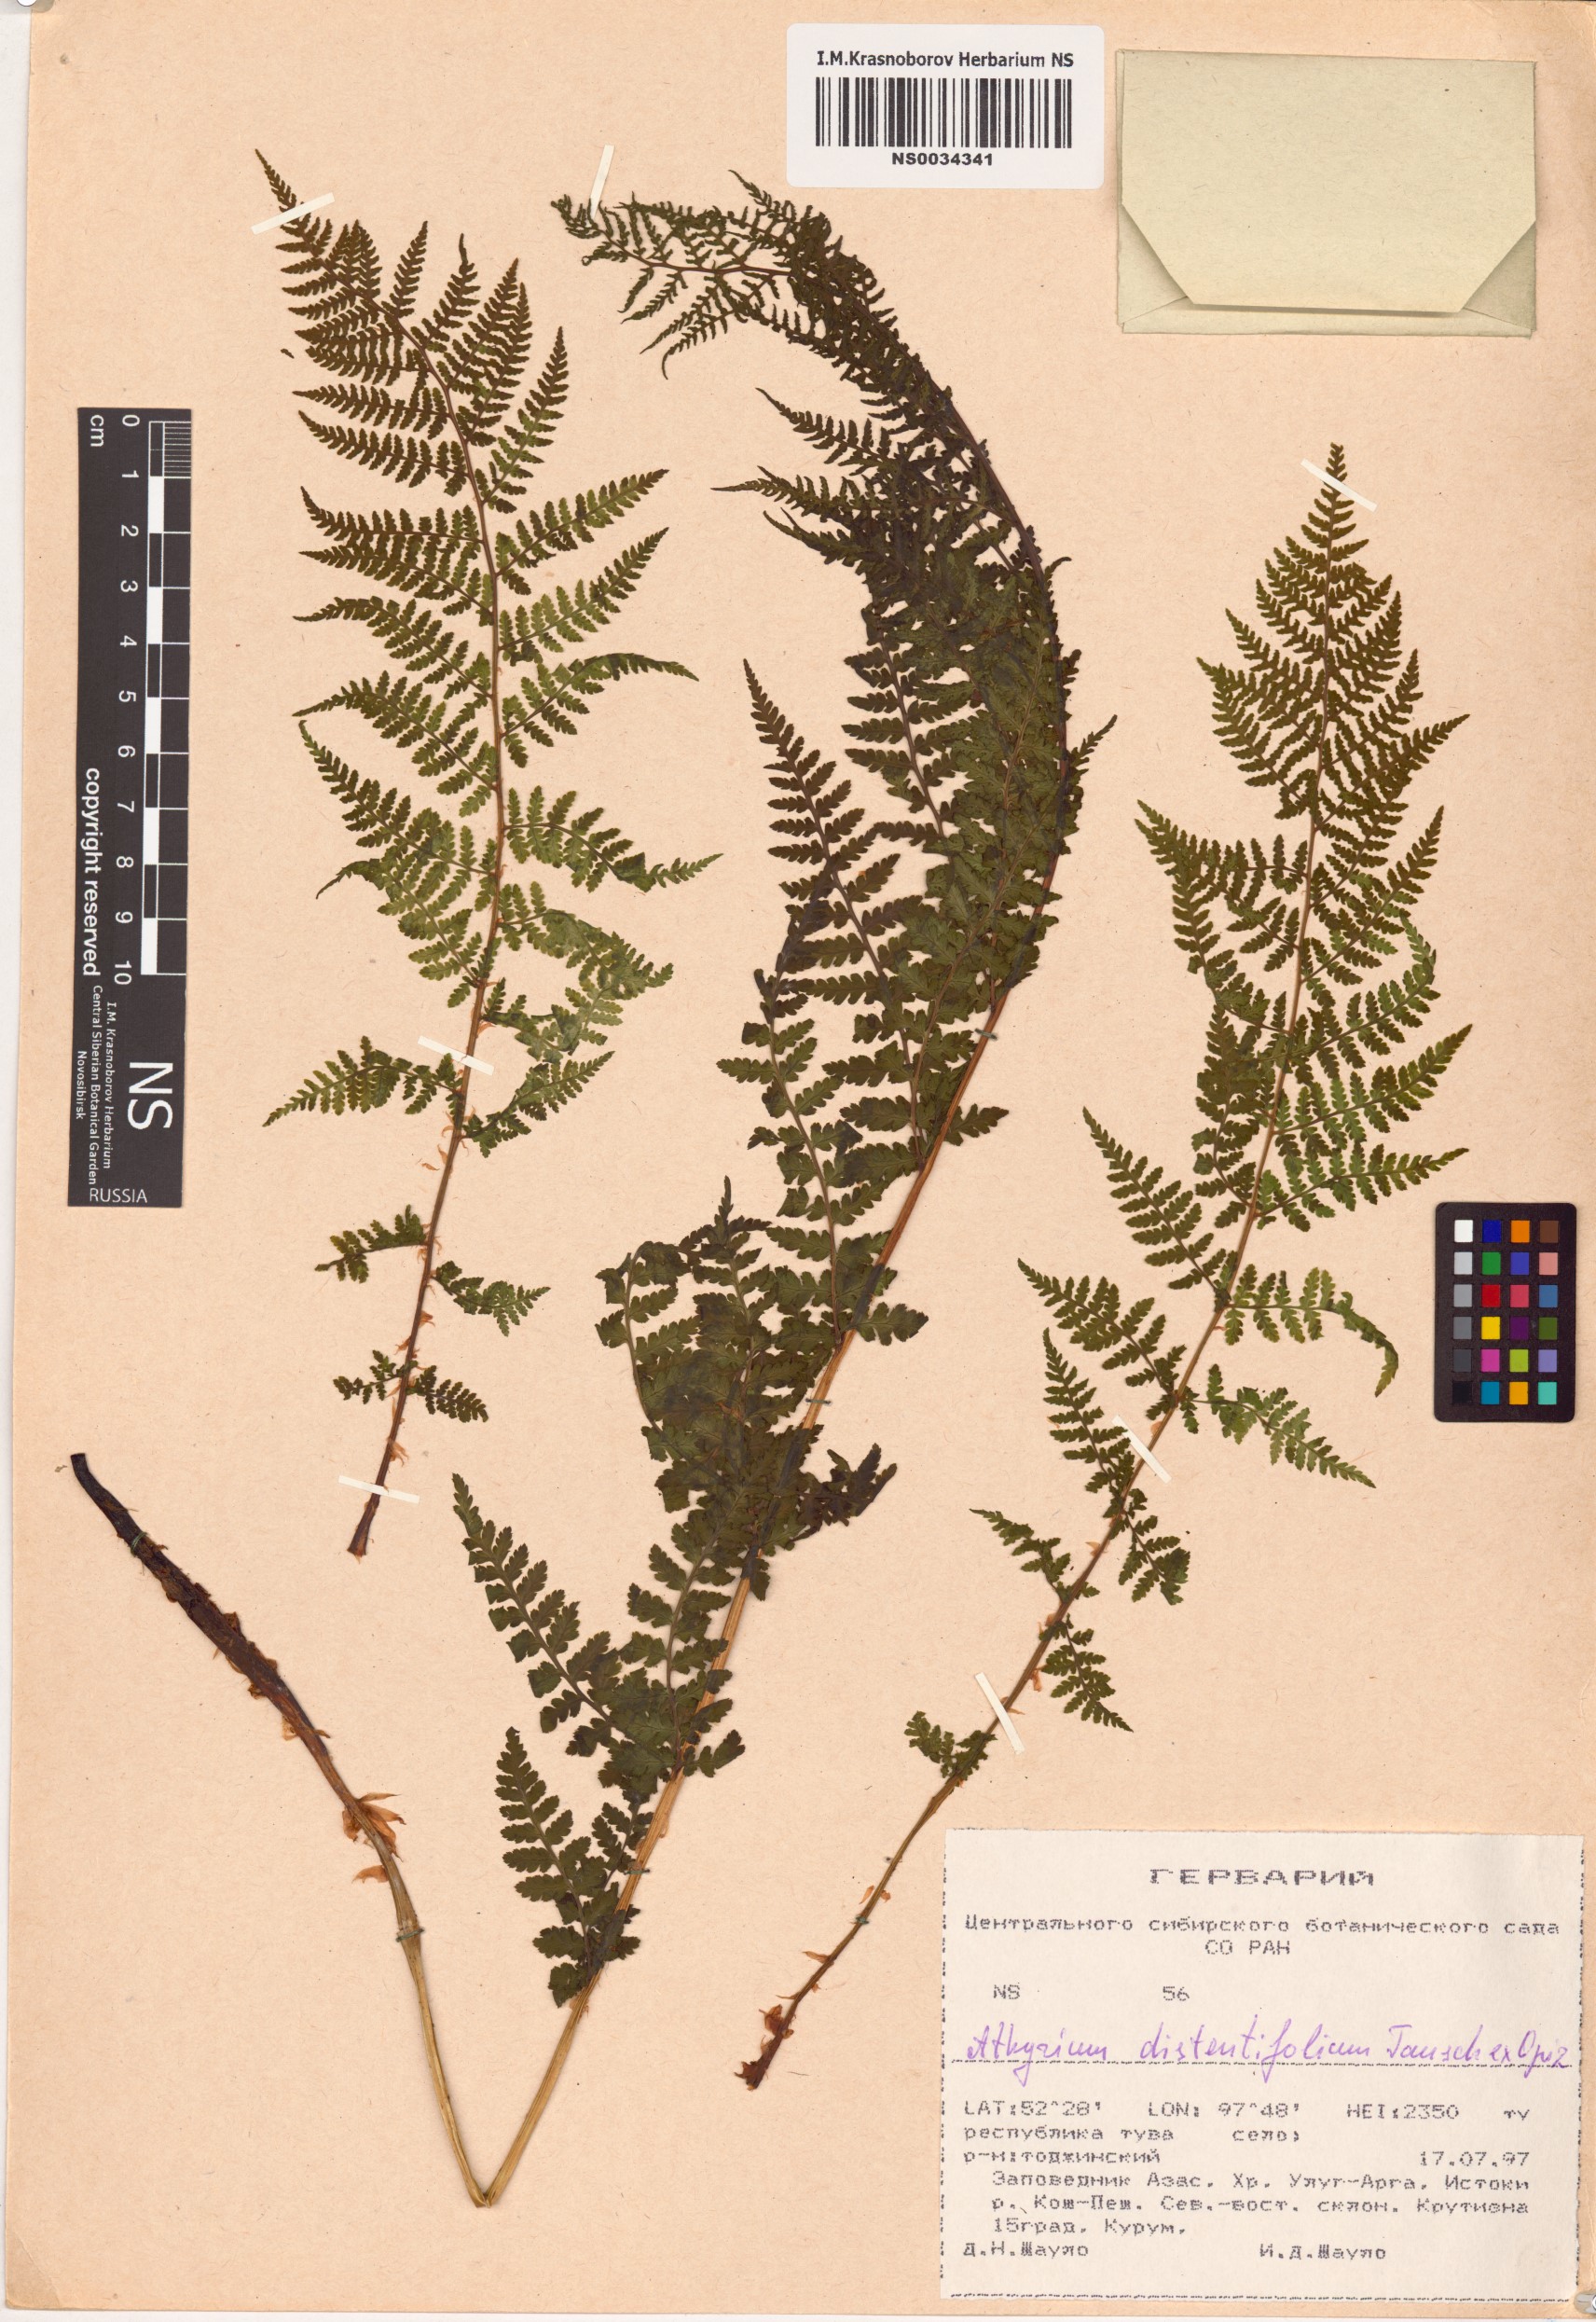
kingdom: Plantae
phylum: Tracheophyta
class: Polypodiopsida
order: Polypodiales
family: Athyriaceae
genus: Pseudathyrium
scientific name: Pseudathyrium alpestre
